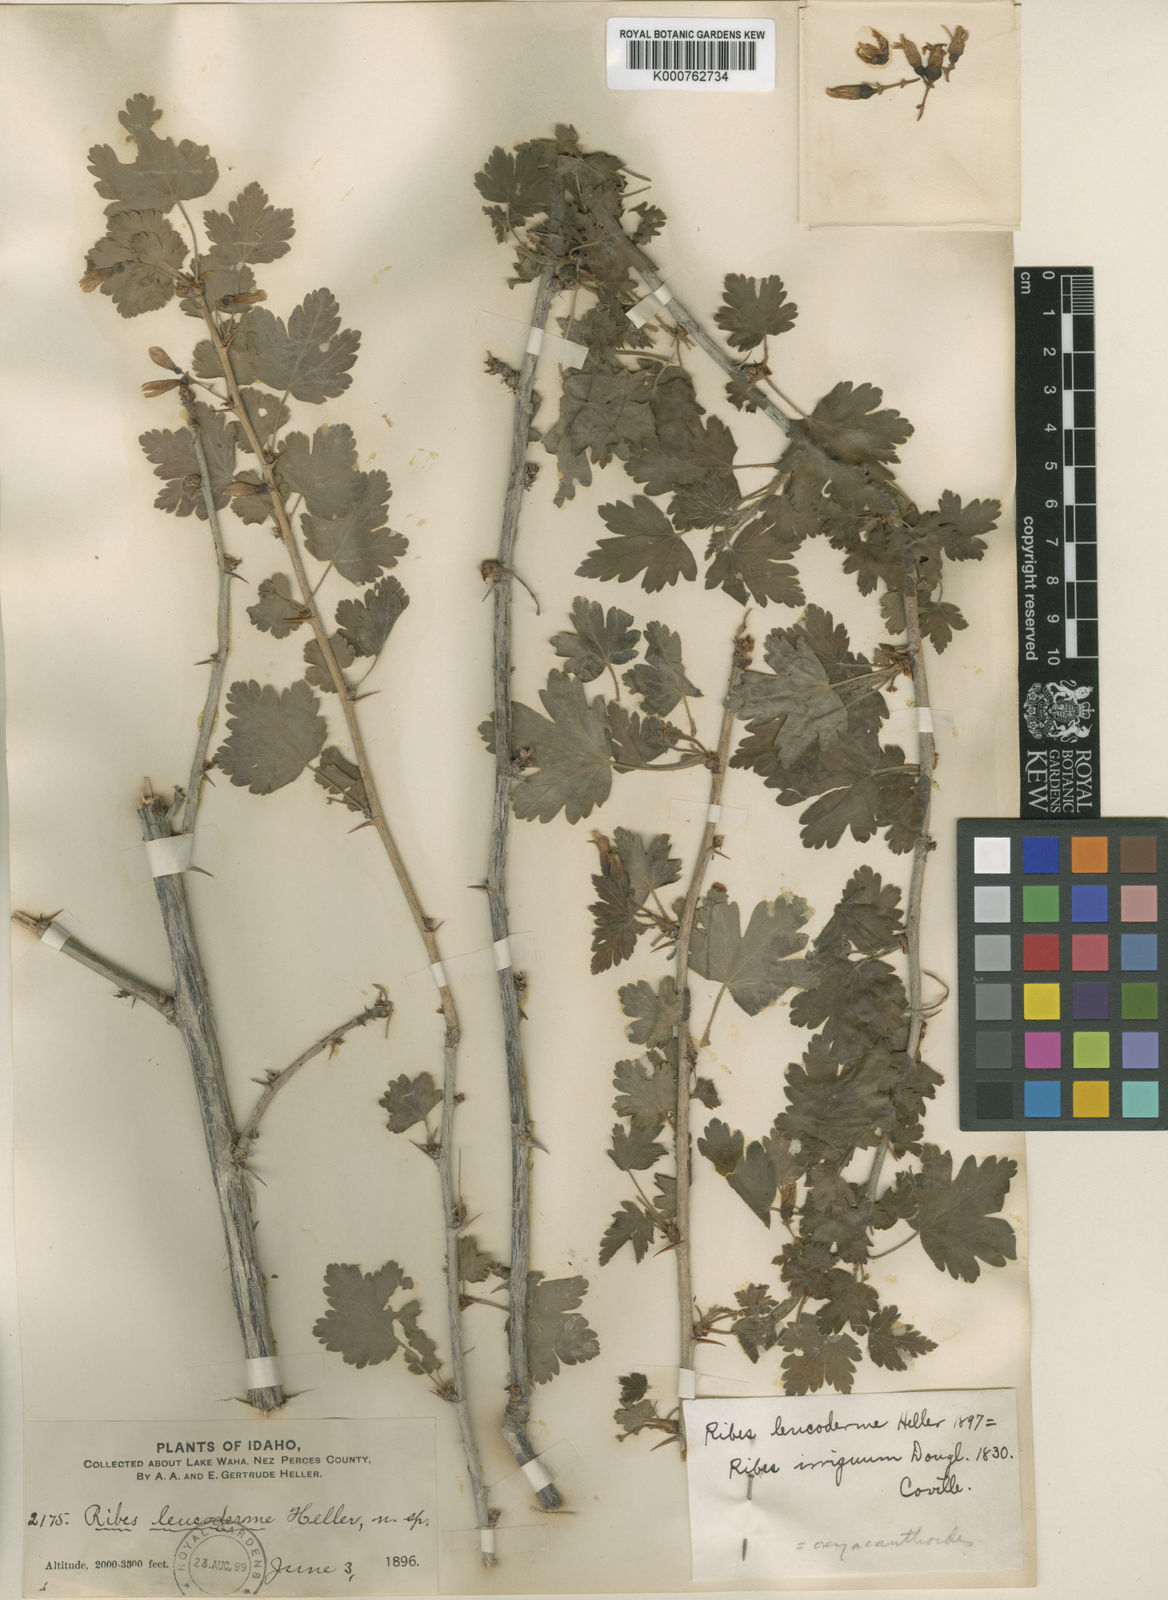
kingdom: Plantae
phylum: Tracheophyta
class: Magnoliopsida
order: Saxifragales
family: Grossulariaceae
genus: Ribes
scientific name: Ribes oxyacanthoides
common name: Northern gooseberry
